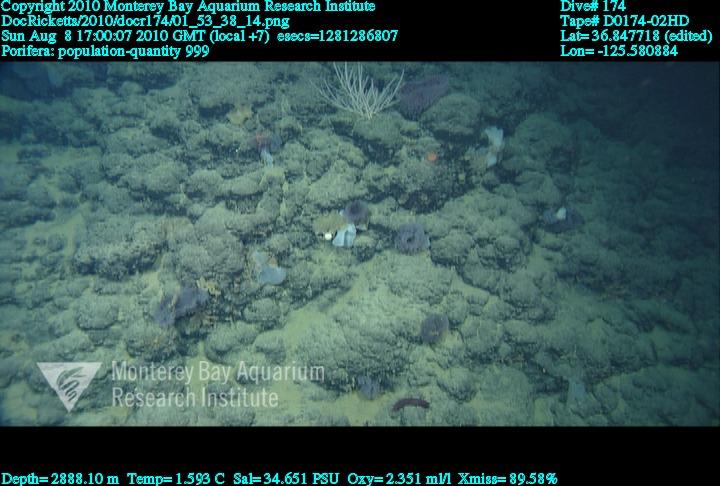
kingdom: Animalia
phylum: Porifera
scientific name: Porifera
